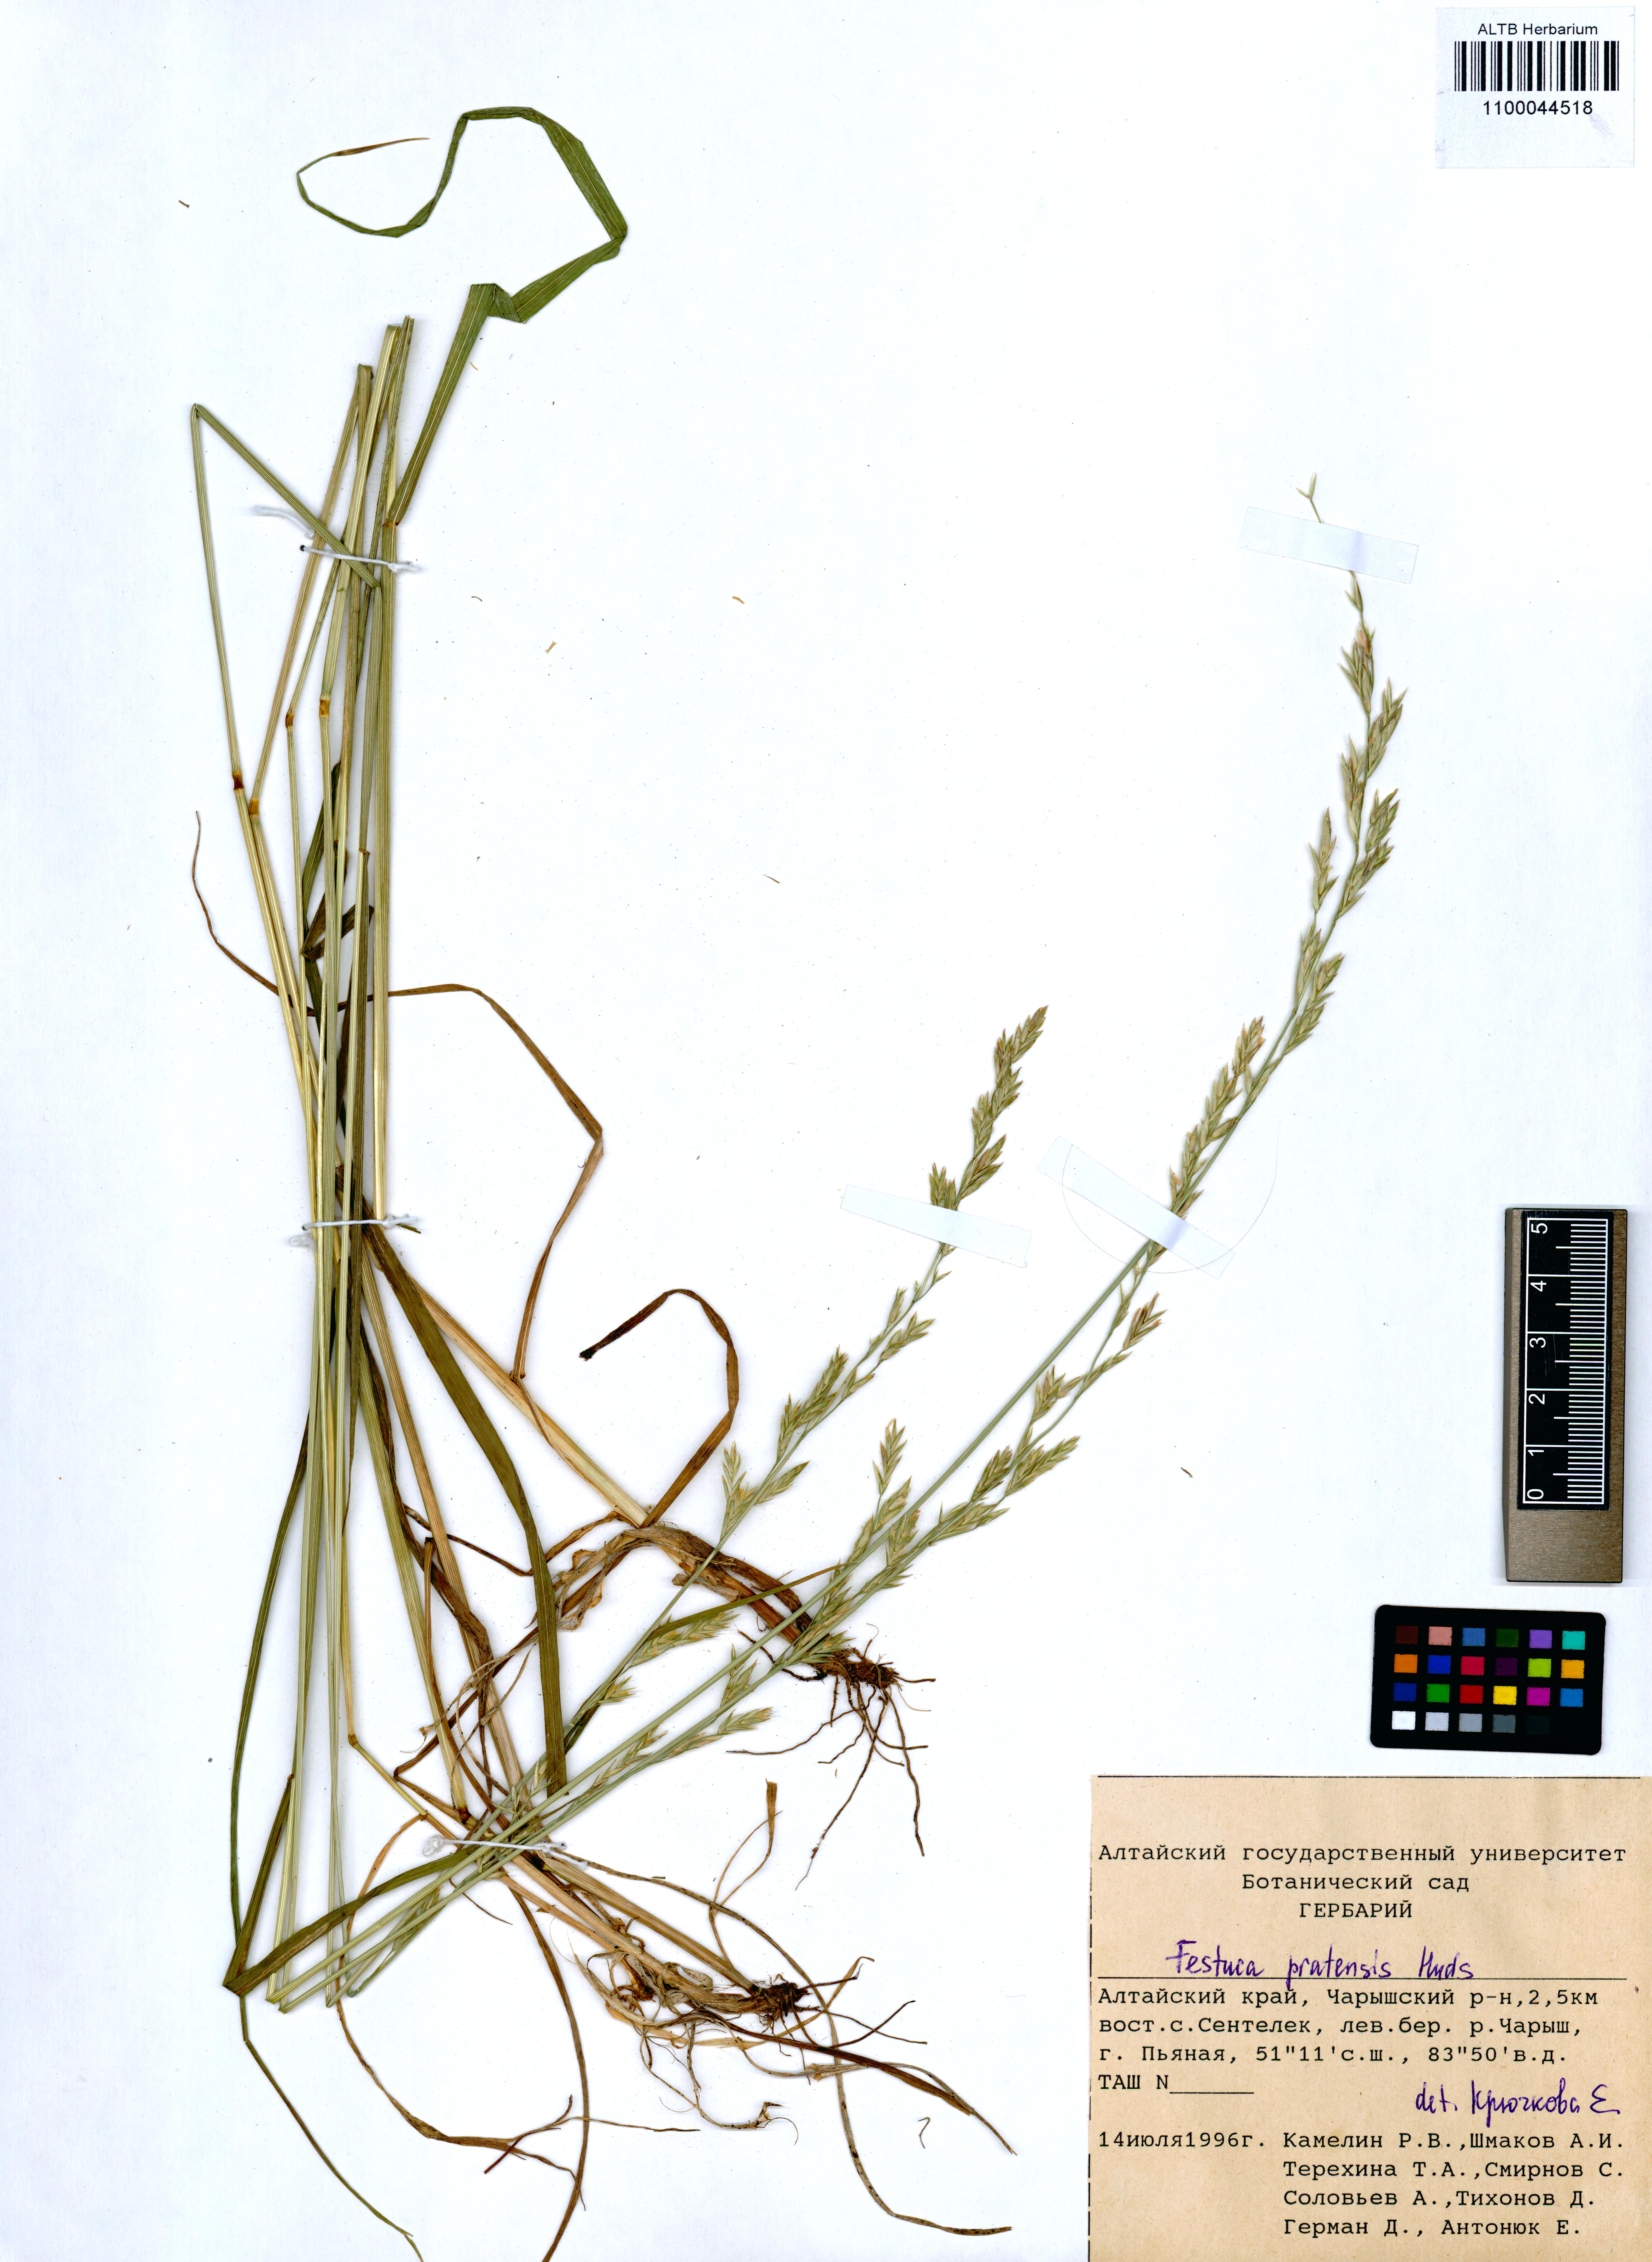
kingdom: Plantae
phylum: Tracheophyta
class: Liliopsida
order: Poales
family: Poaceae
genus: Lolium
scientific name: Lolium pratense
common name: Dover grass
